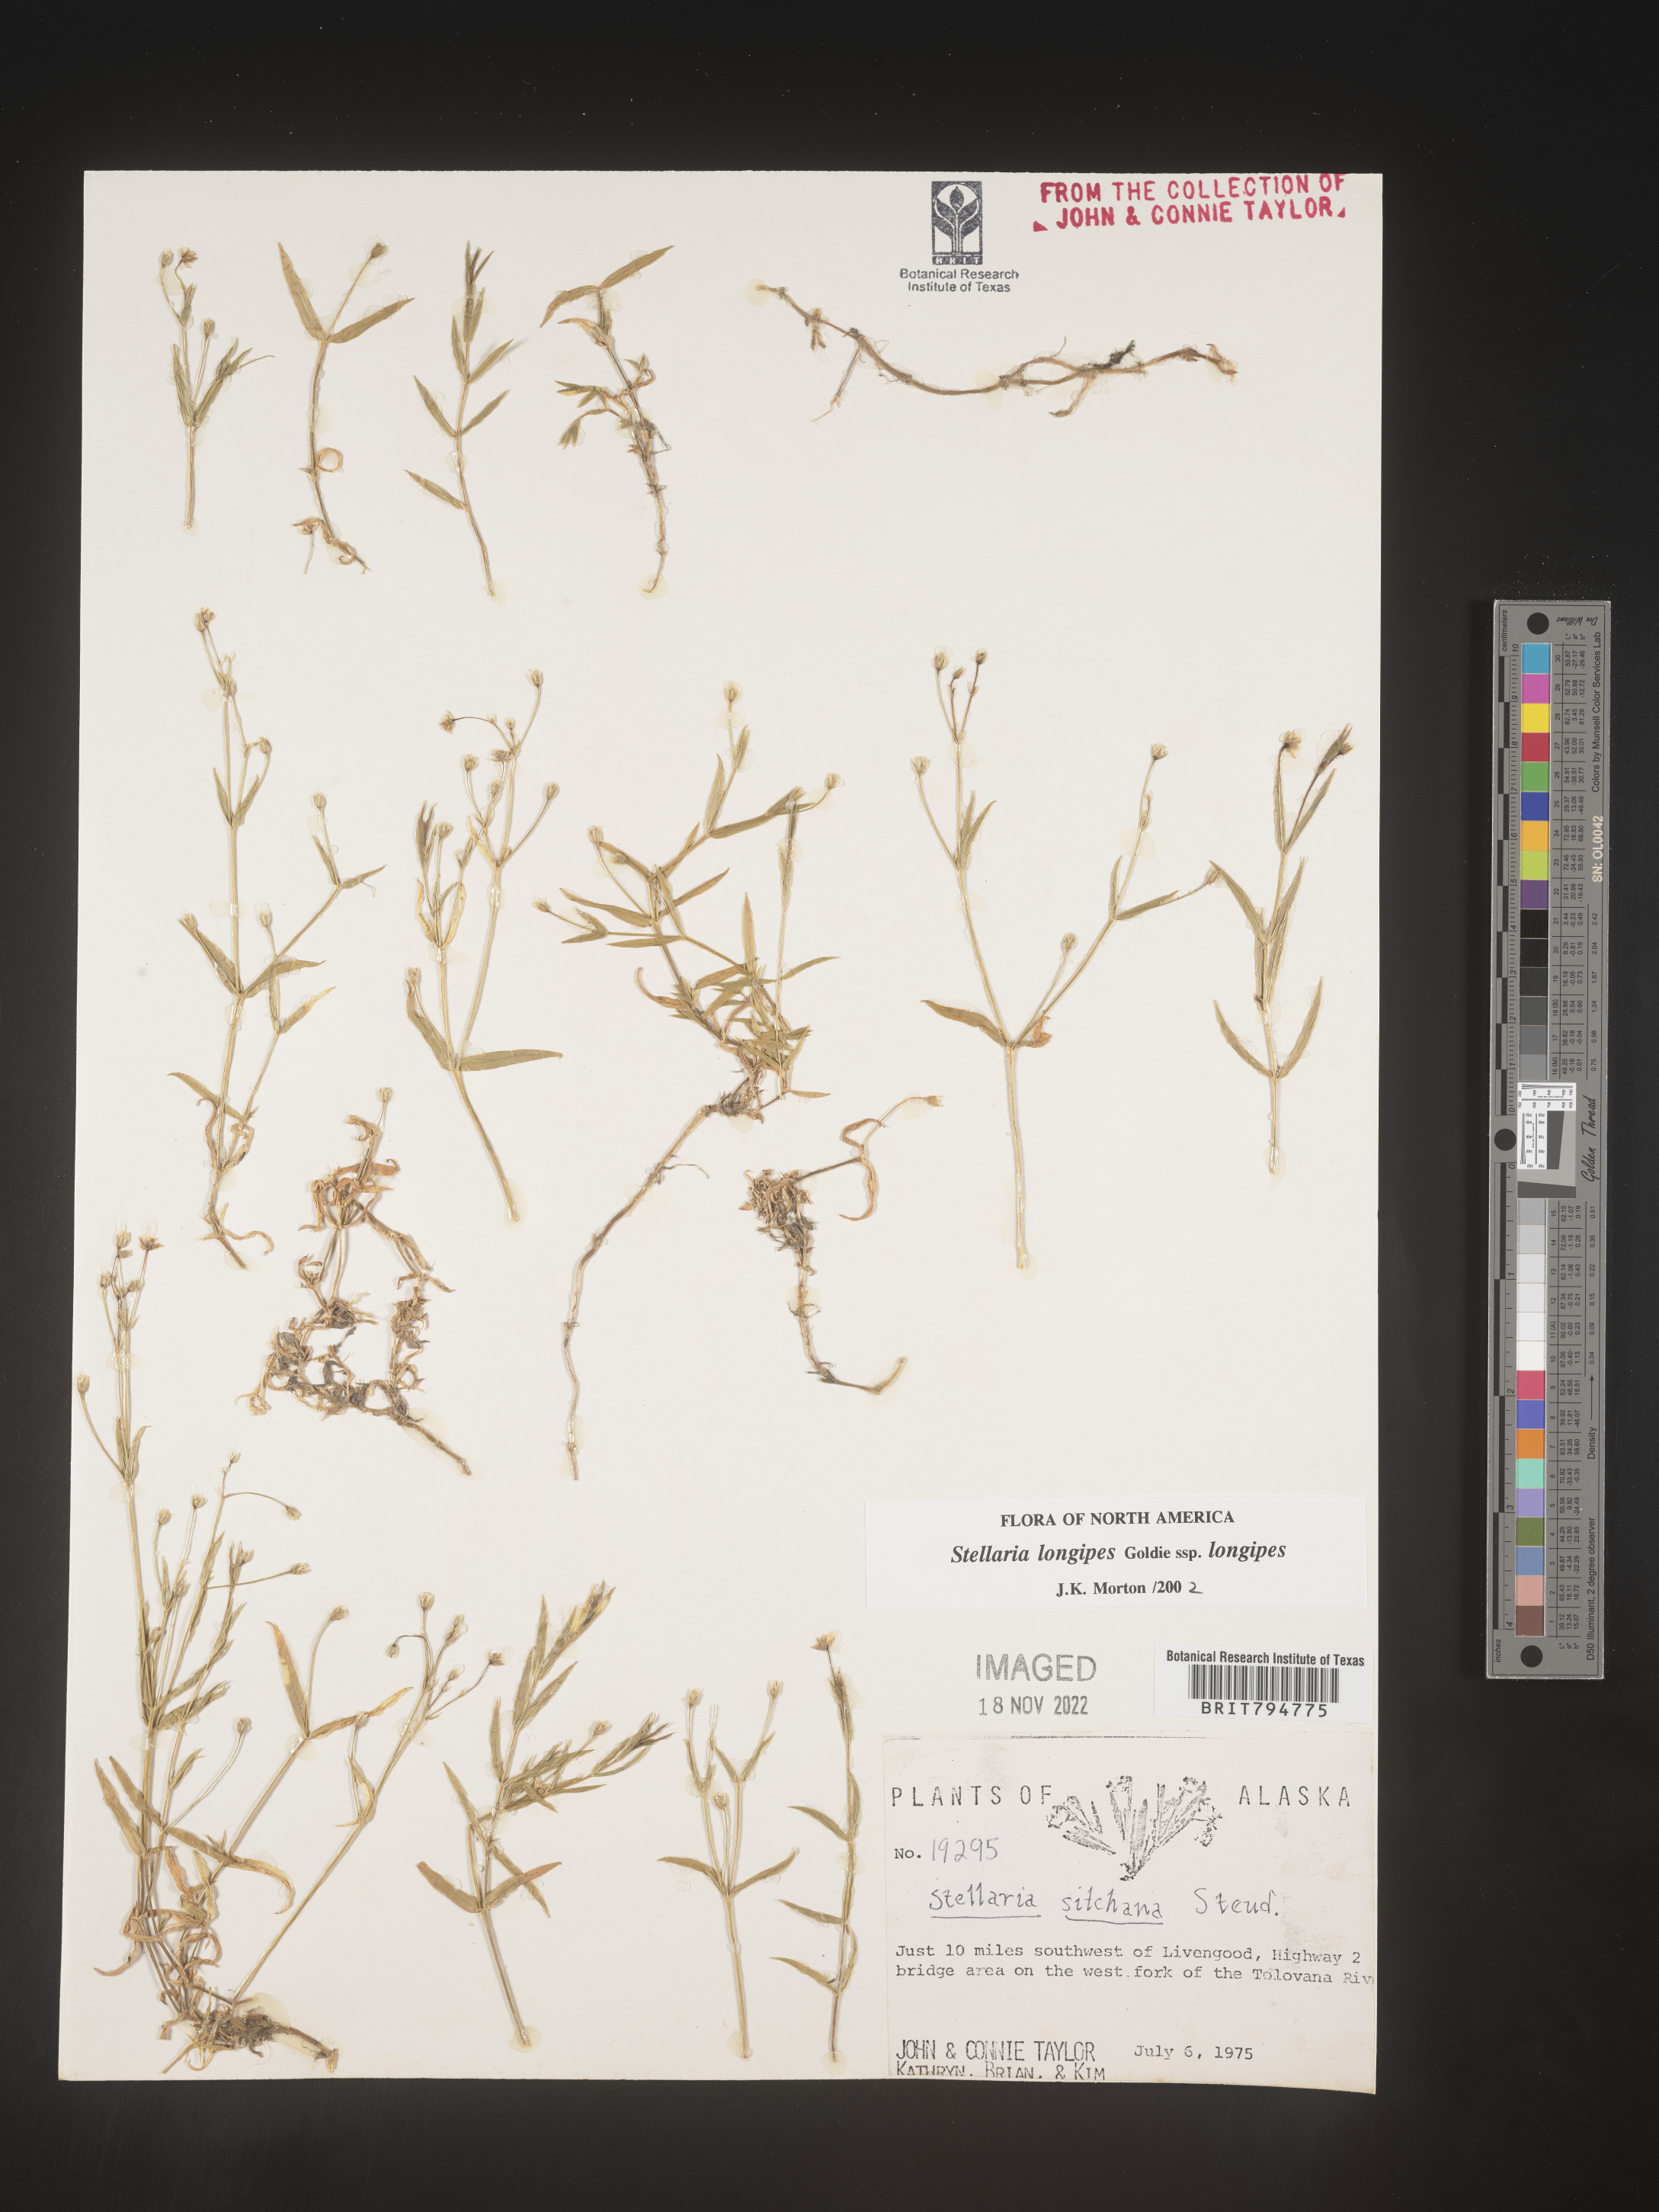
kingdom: Plantae
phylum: Tracheophyta
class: Magnoliopsida
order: Caryophyllales
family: Caryophyllaceae
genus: Stellaria
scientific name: Stellaria longipes
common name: Goldie's starwort
